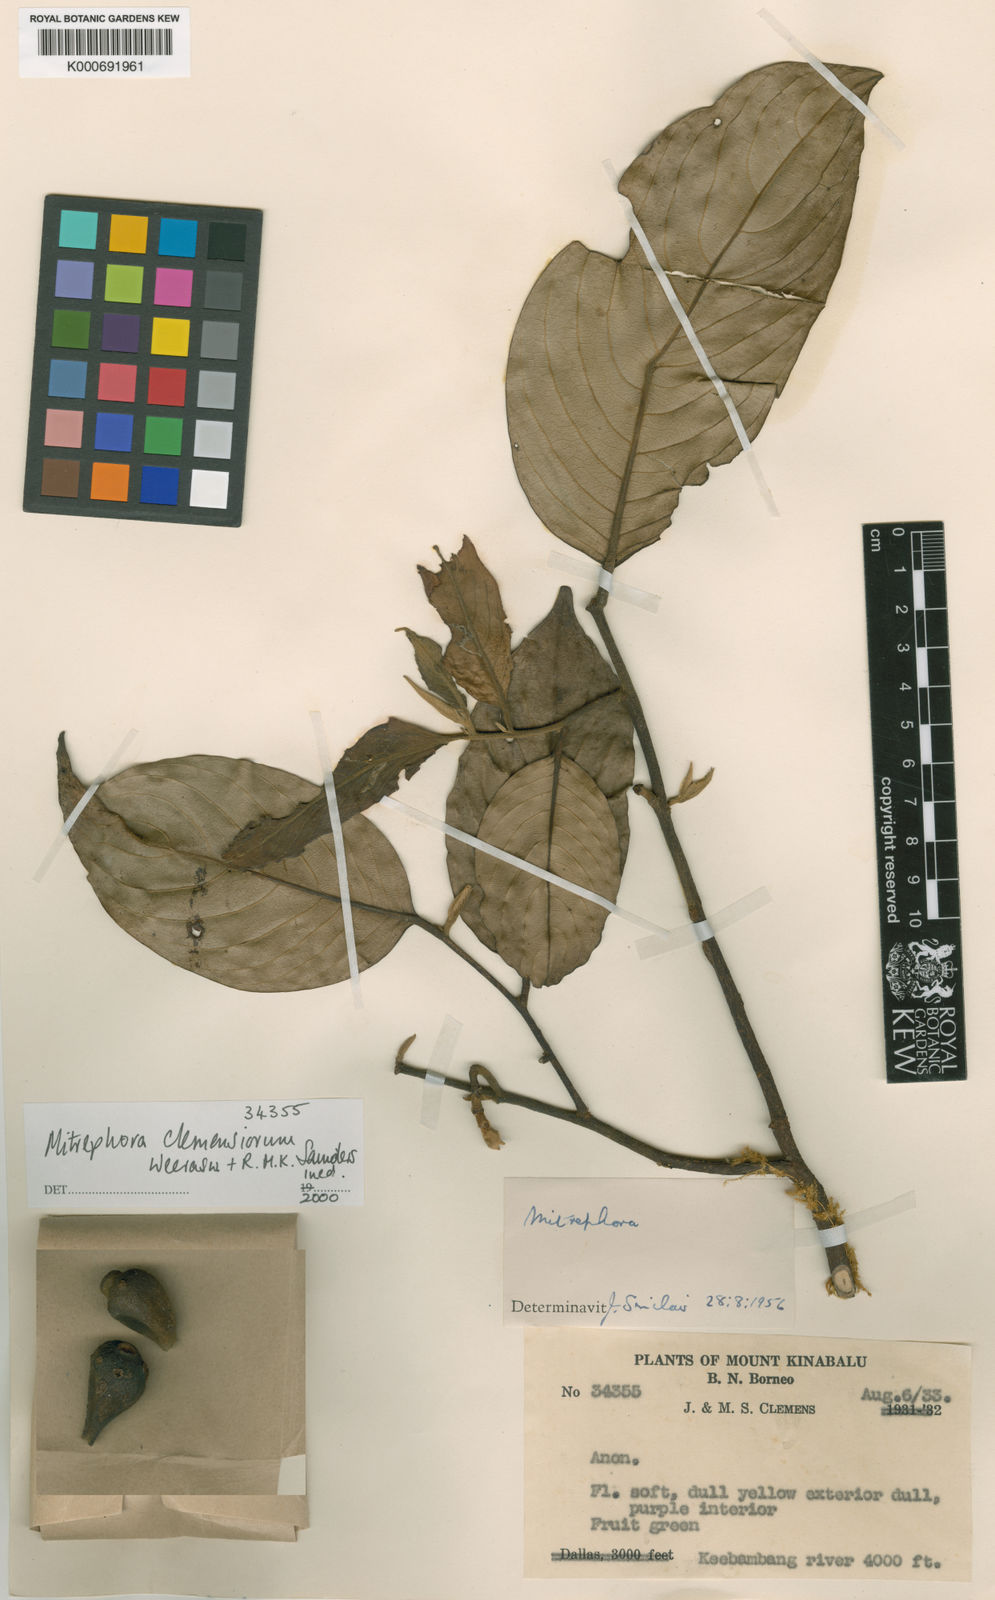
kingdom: Plantae
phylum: Tracheophyta
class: Magnoliopsida
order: Magnoliales
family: Annonaceae
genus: Mitrephora
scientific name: Mitrephora clemensiorum
